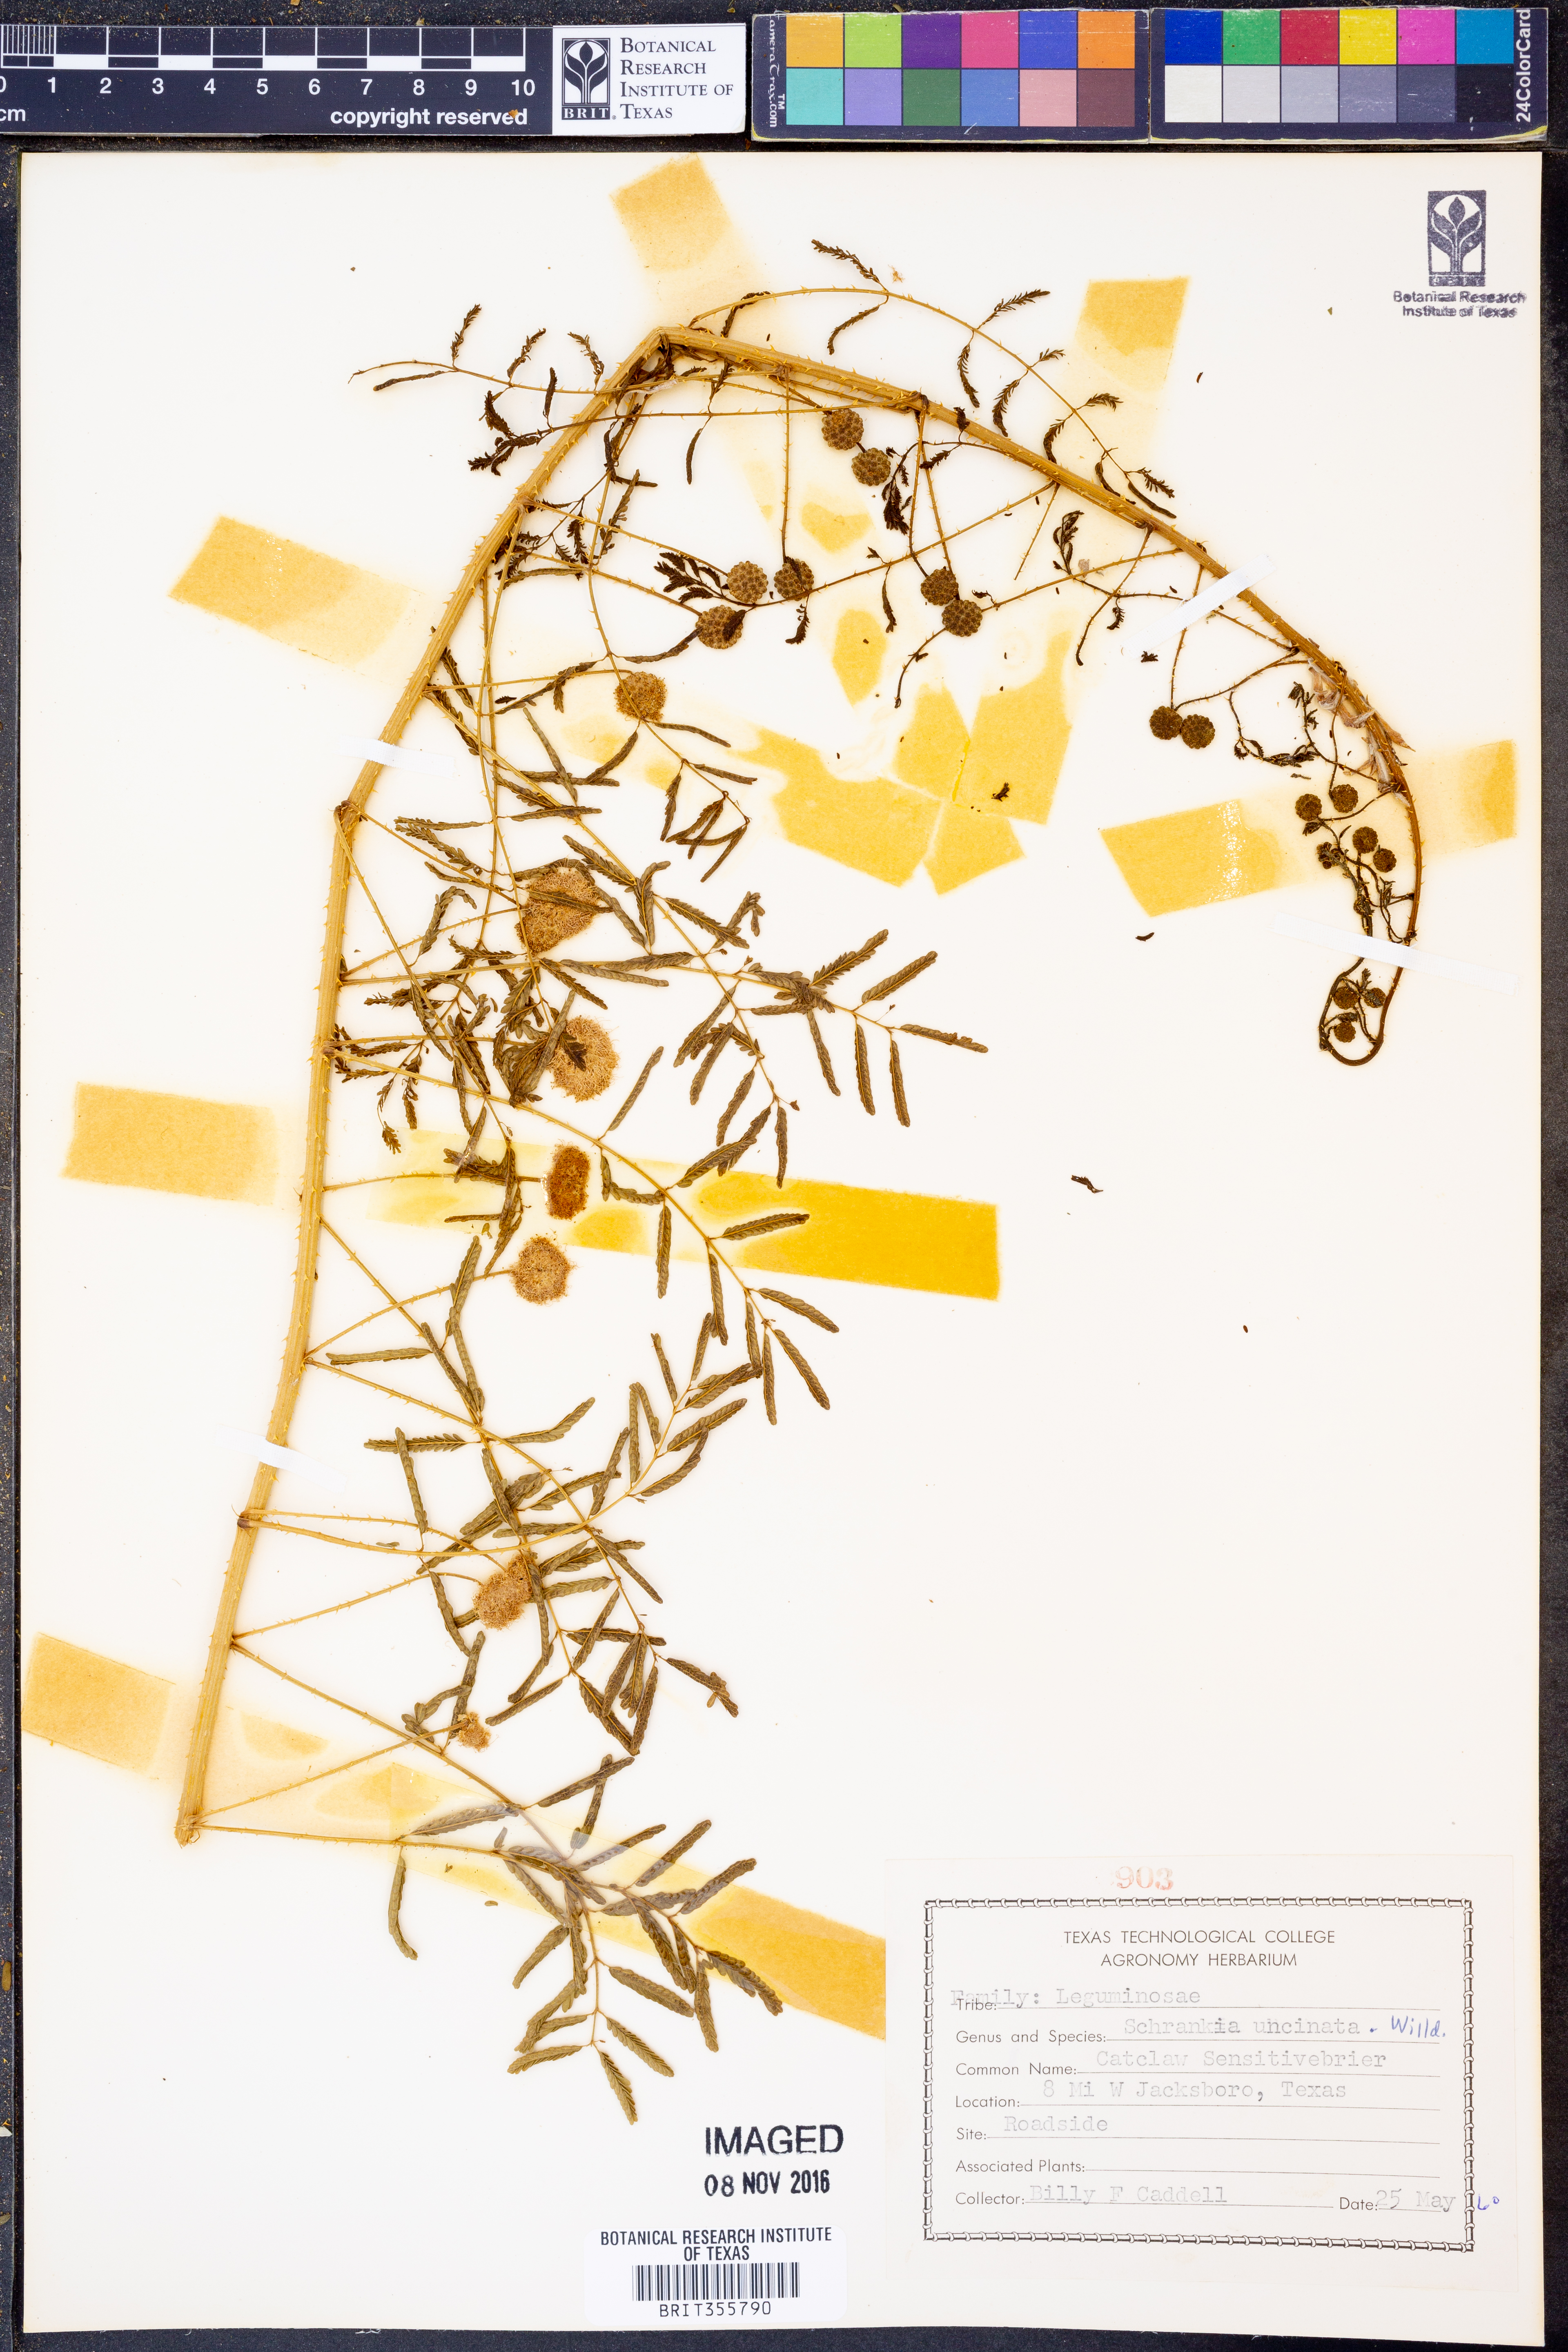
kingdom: Plantae
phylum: Tracheophyta
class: Magnoliopsida
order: Fabales
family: Fabaceae
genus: Mimosa
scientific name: Mimosa quadrivalvis
